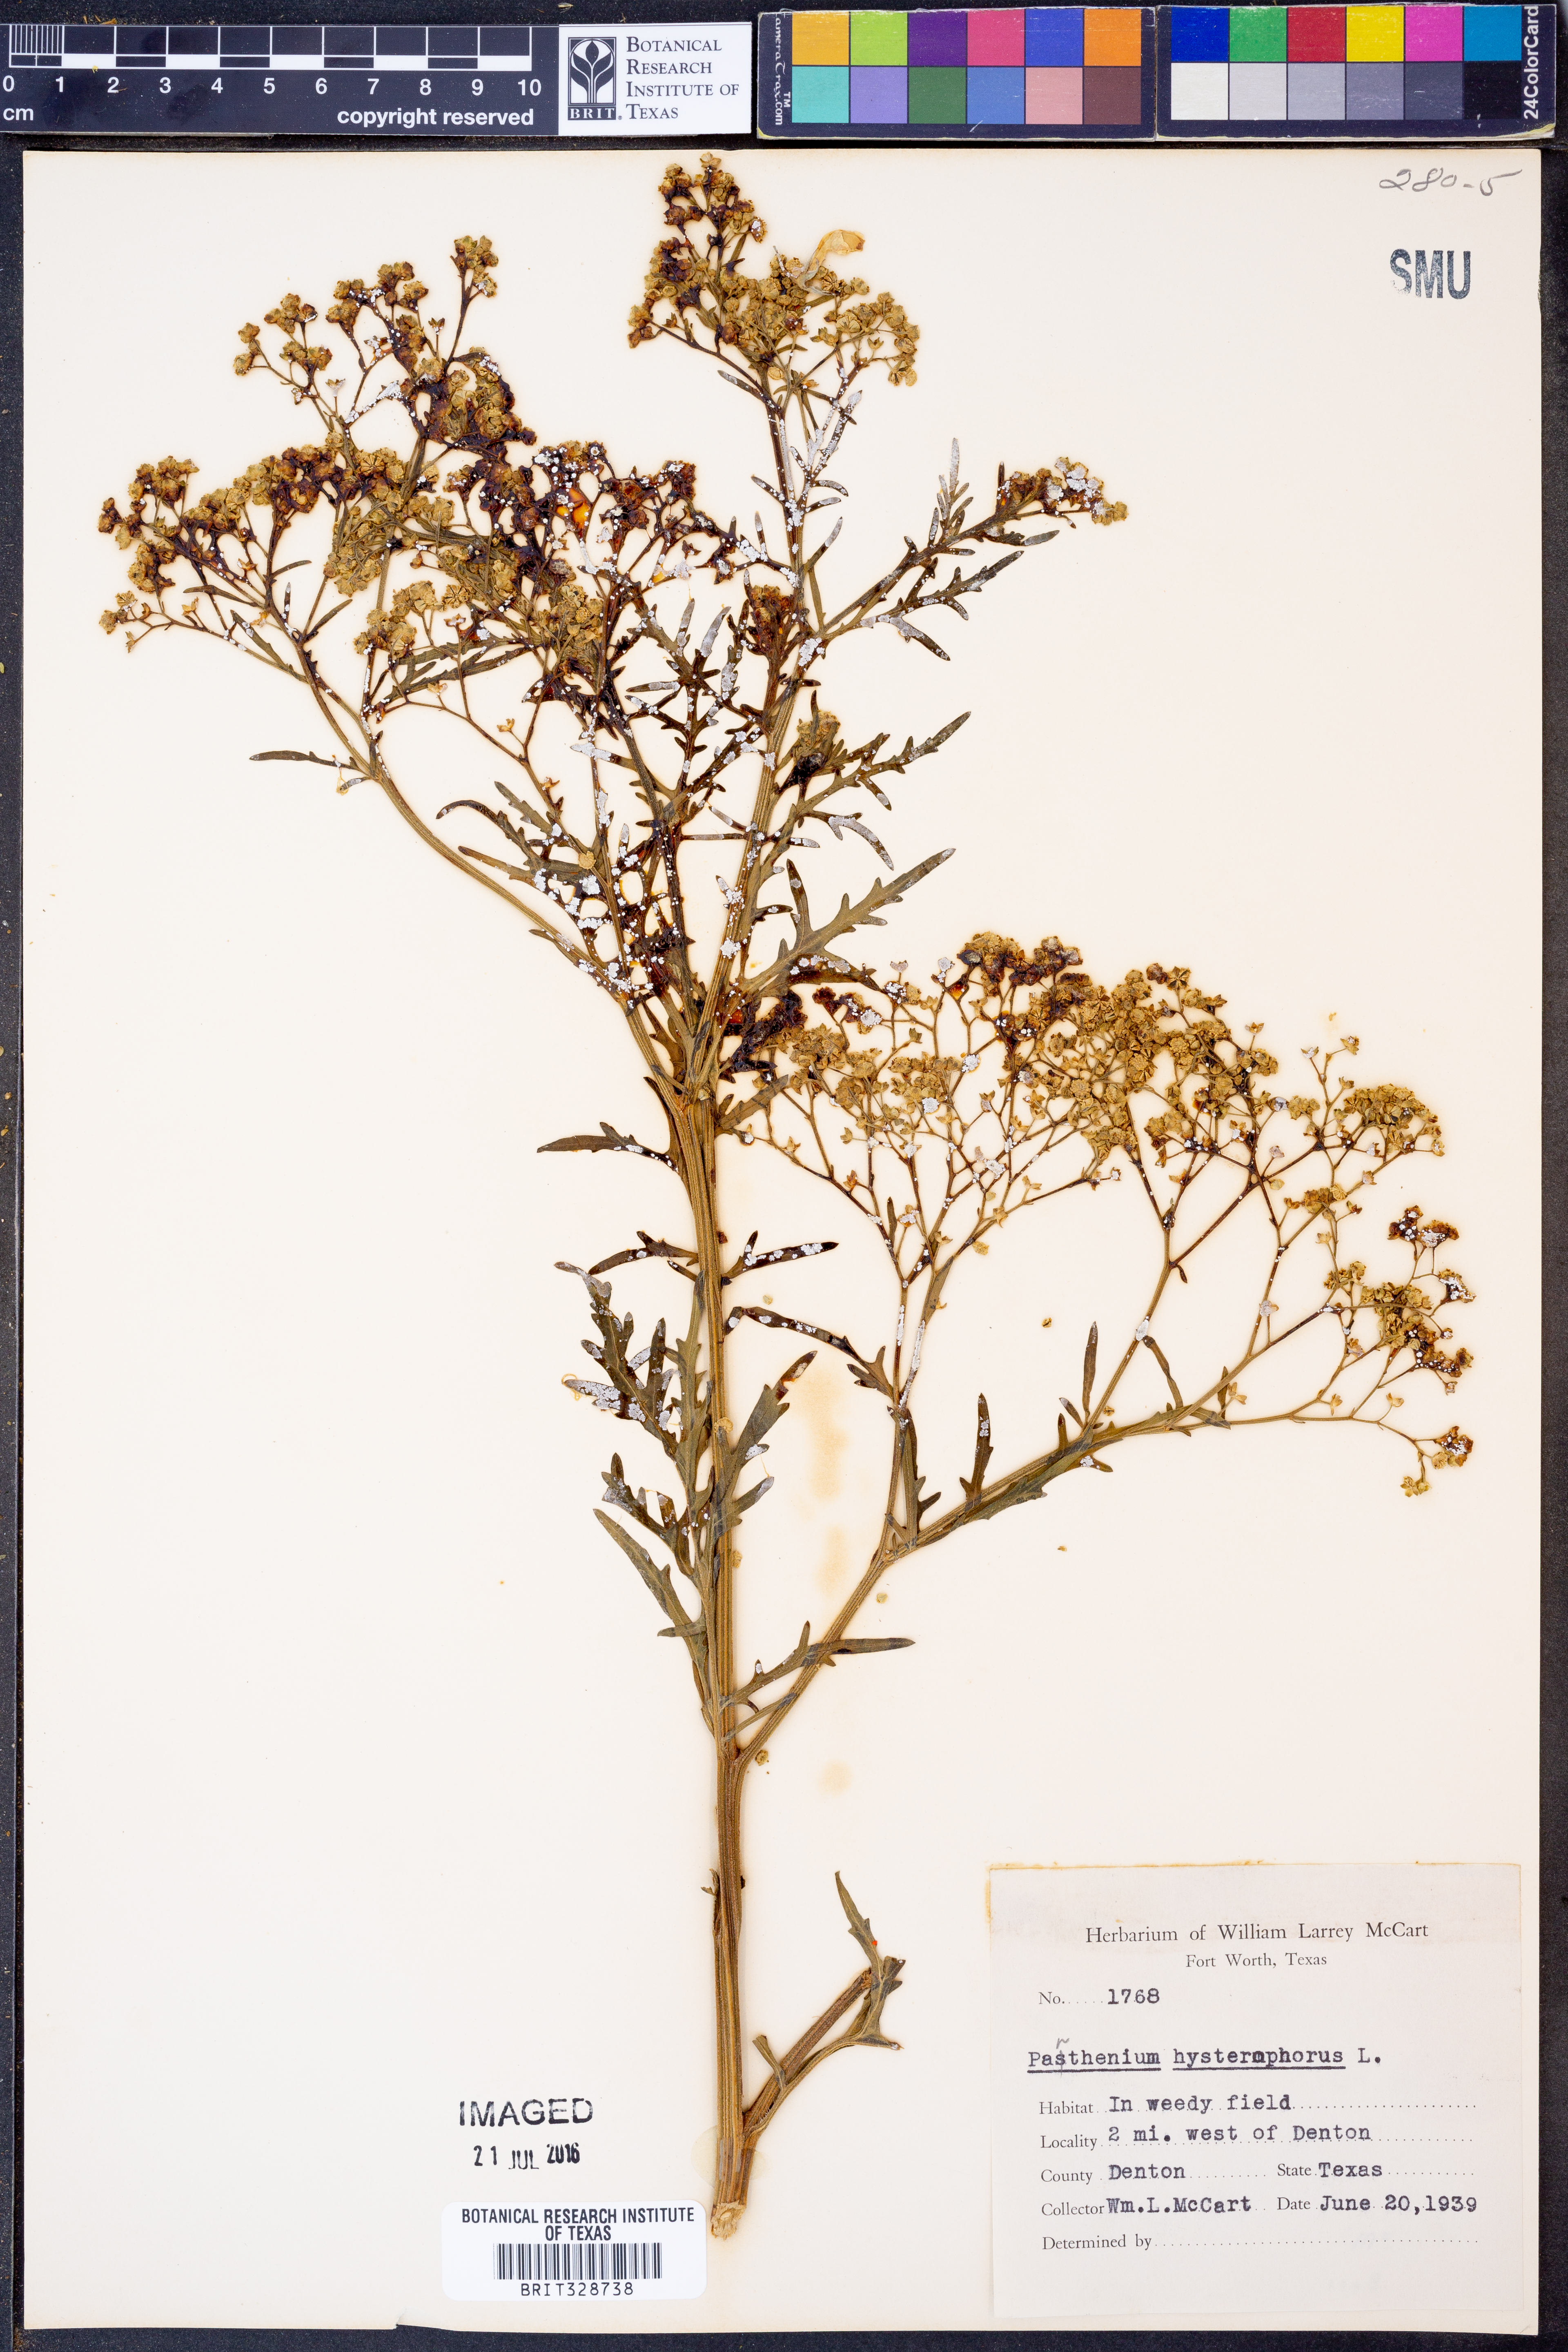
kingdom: Plantae
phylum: Tracheophyta
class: Magnoliopsida
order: Asterales
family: Asteraceae
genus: Parthenium
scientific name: Parthenium hysterophorus
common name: Santa maria feverfew
